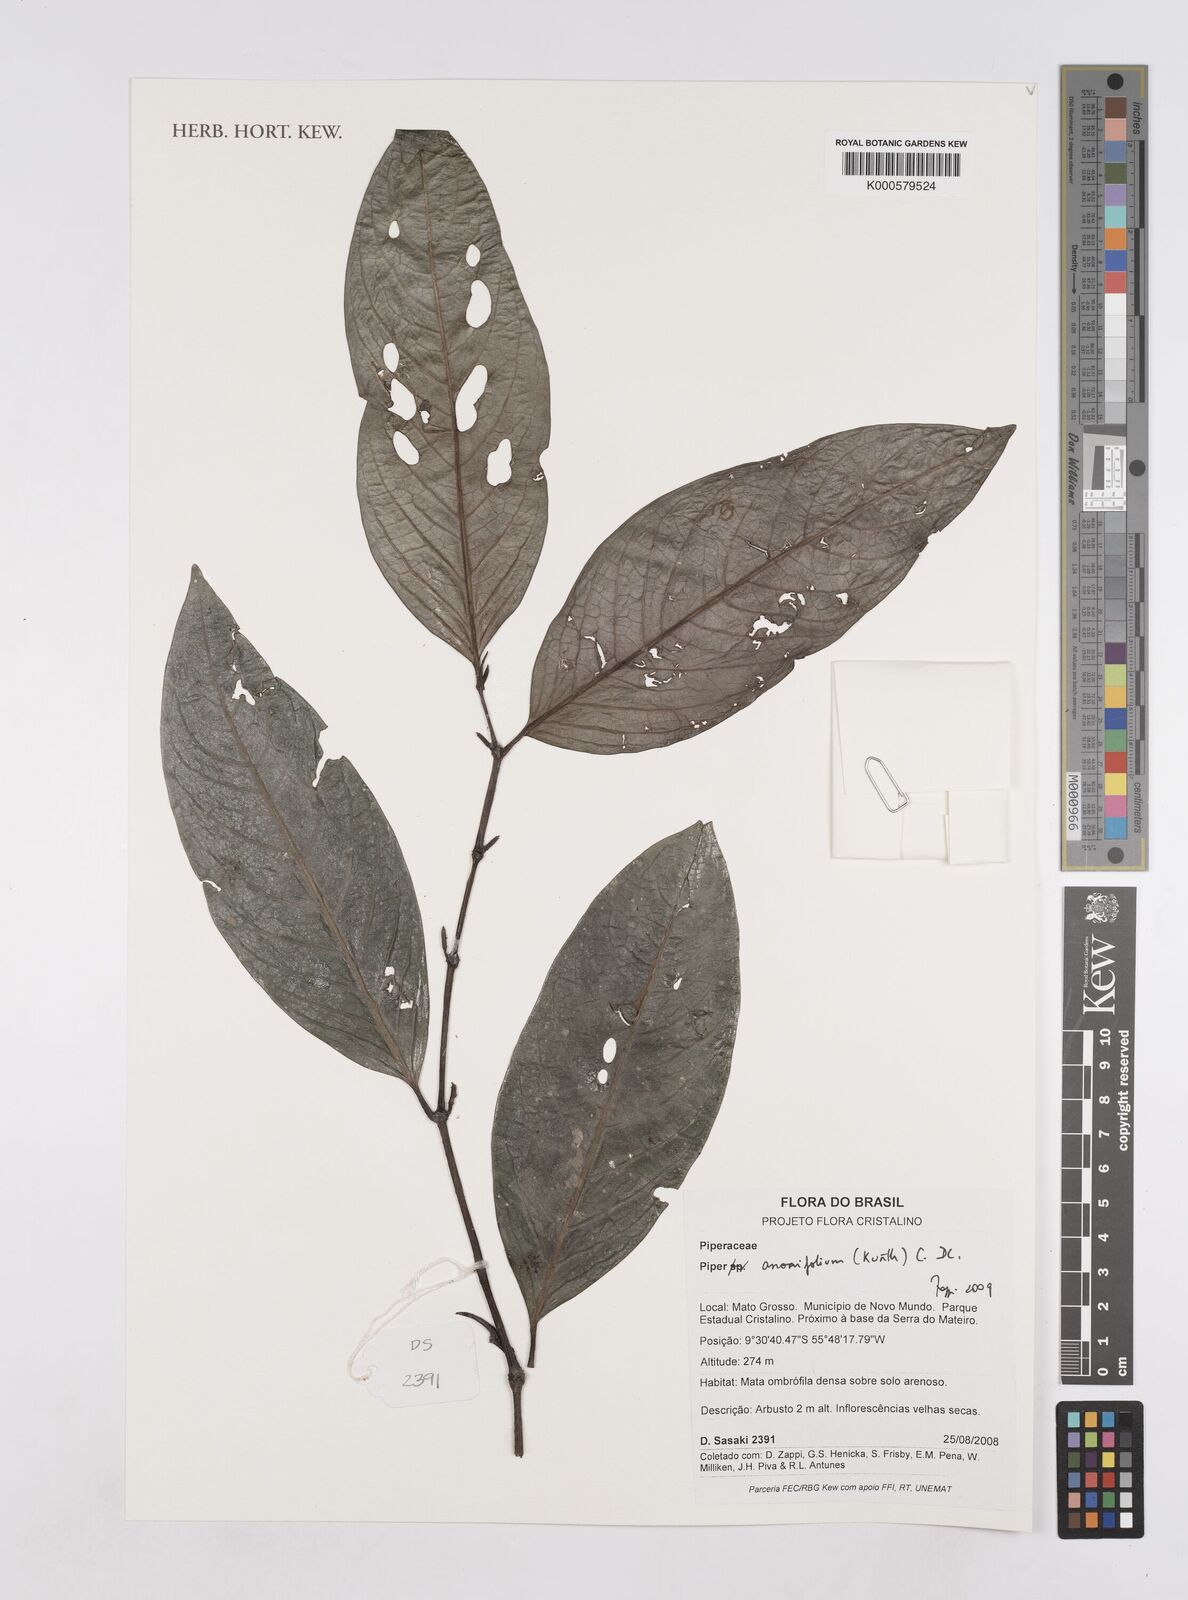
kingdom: Plantae
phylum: Tracheophyta
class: Magnoliopsida
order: Piperales
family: Piperaceae
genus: Piper
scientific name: Piper
